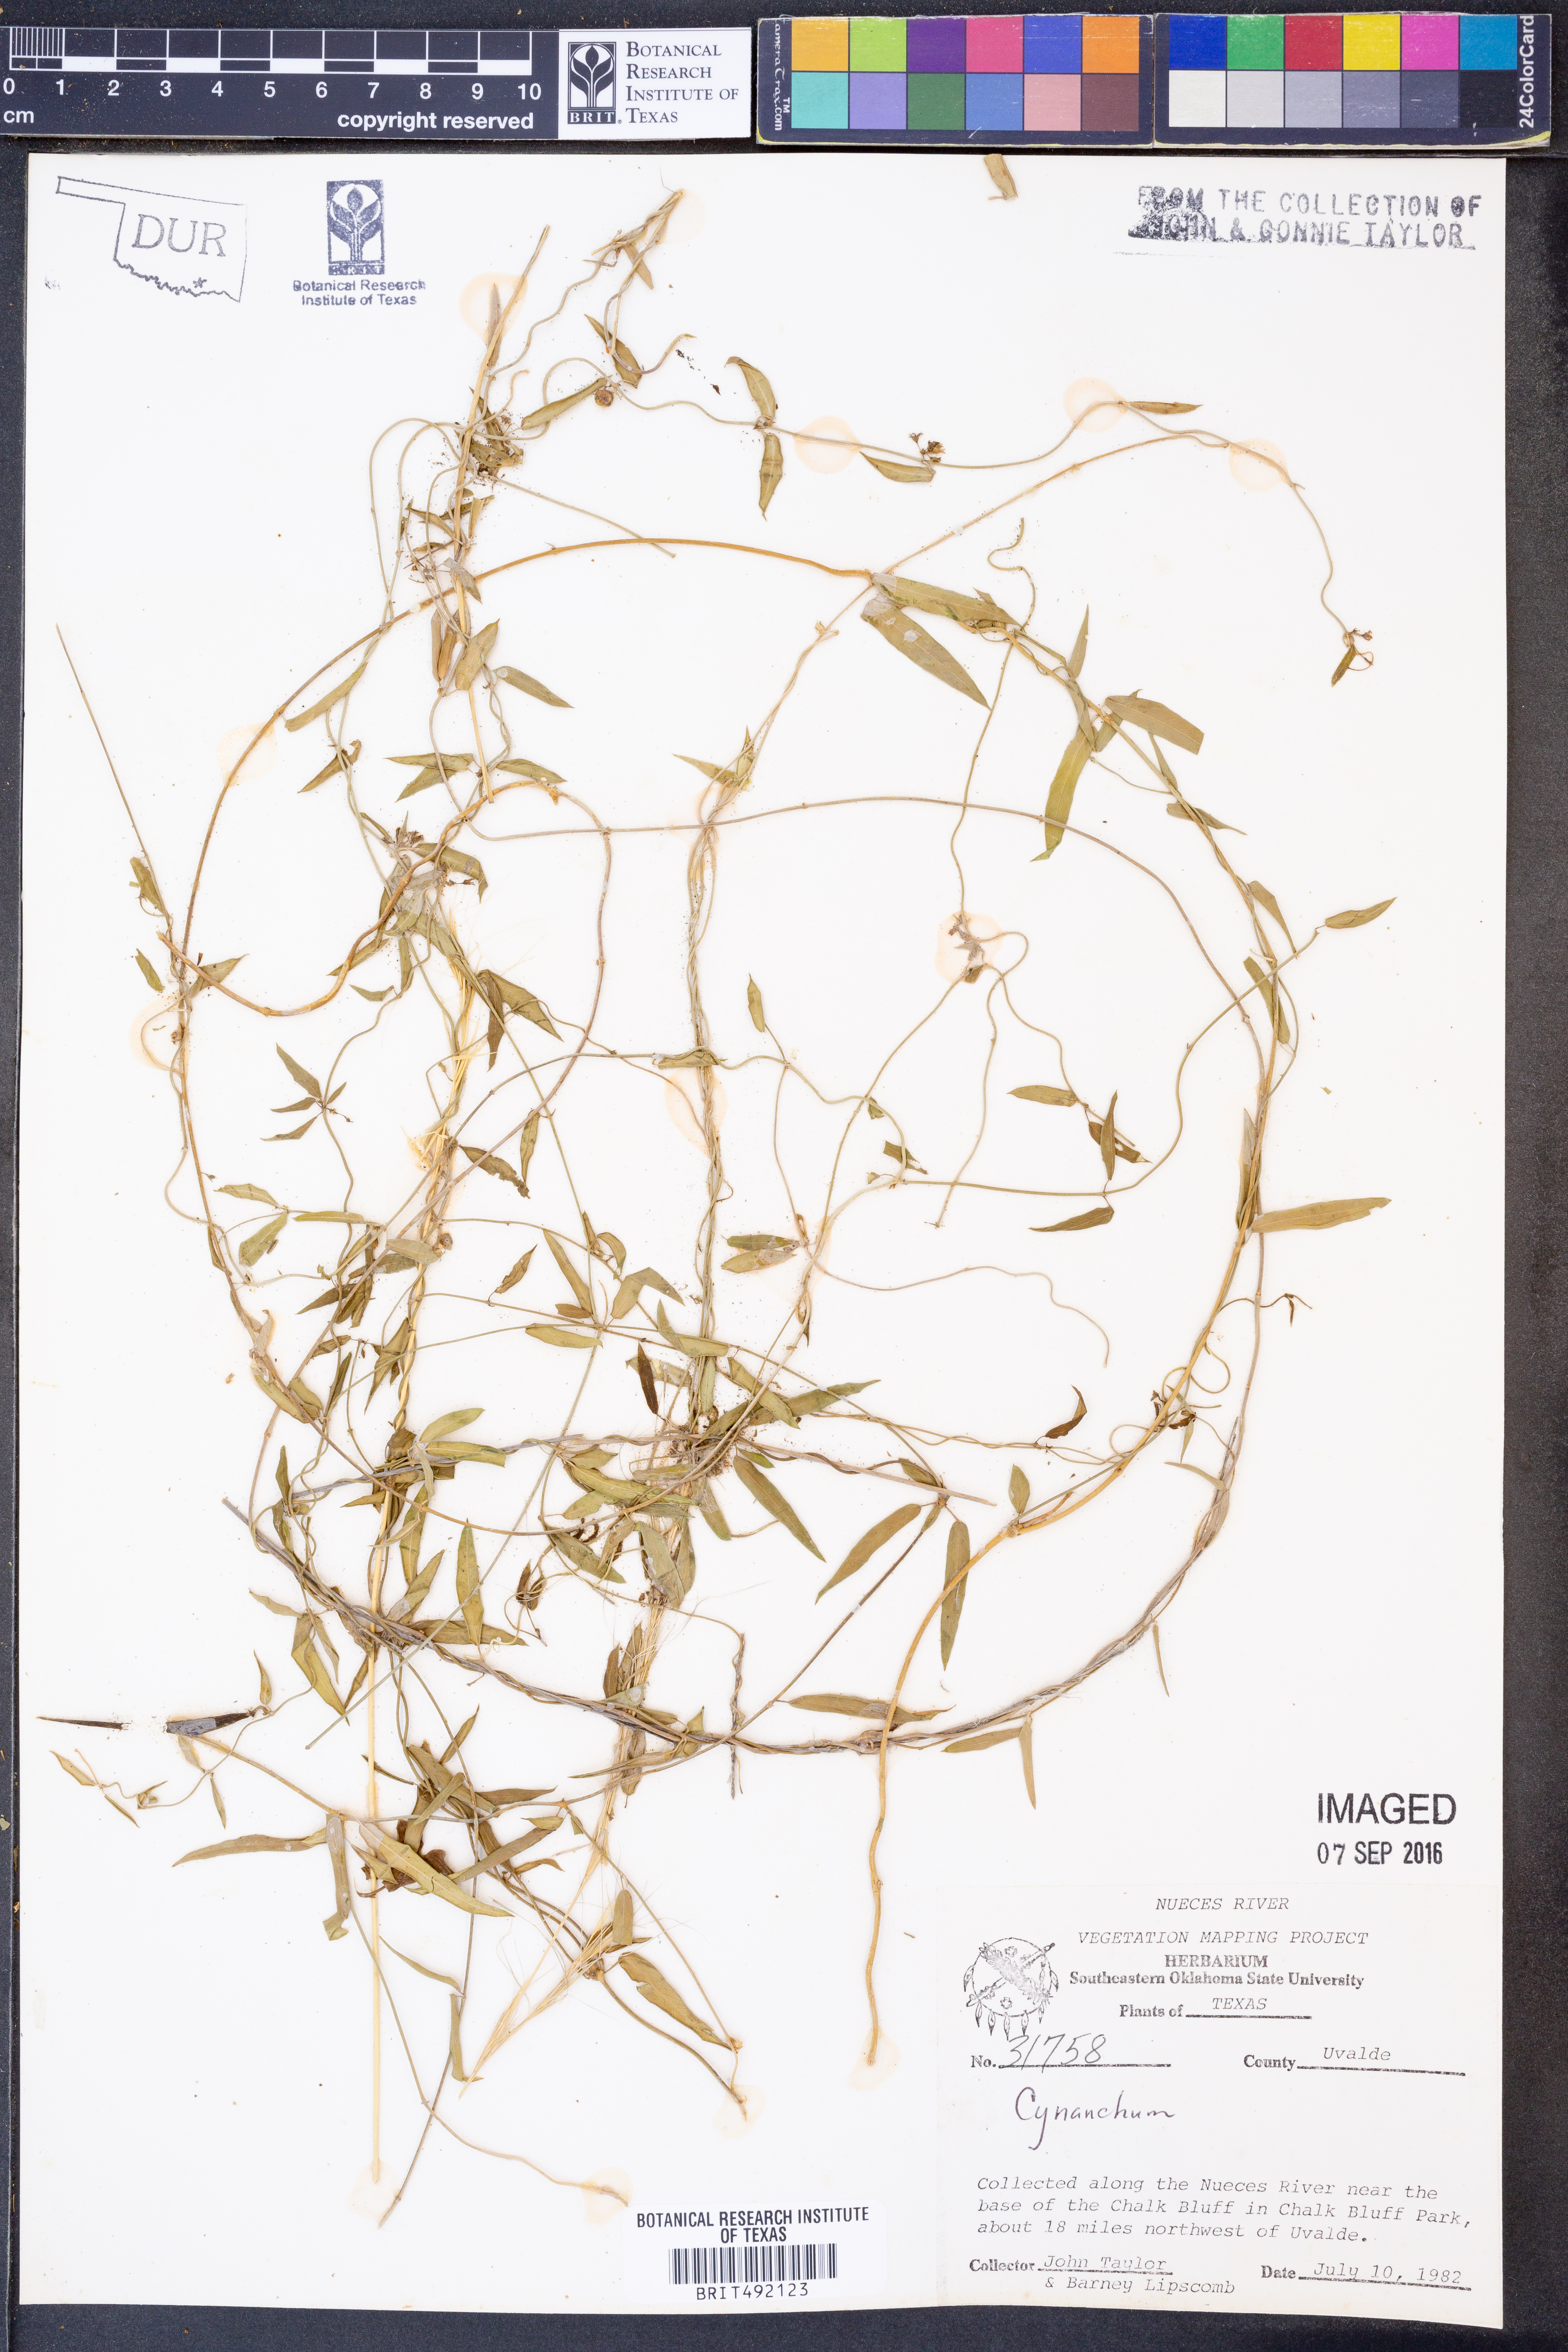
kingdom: Plantae
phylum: Tracheophyta
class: Magnoliopsida
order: Gentianales
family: Apocynaceae
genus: Cynanchum
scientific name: Cynanchum
